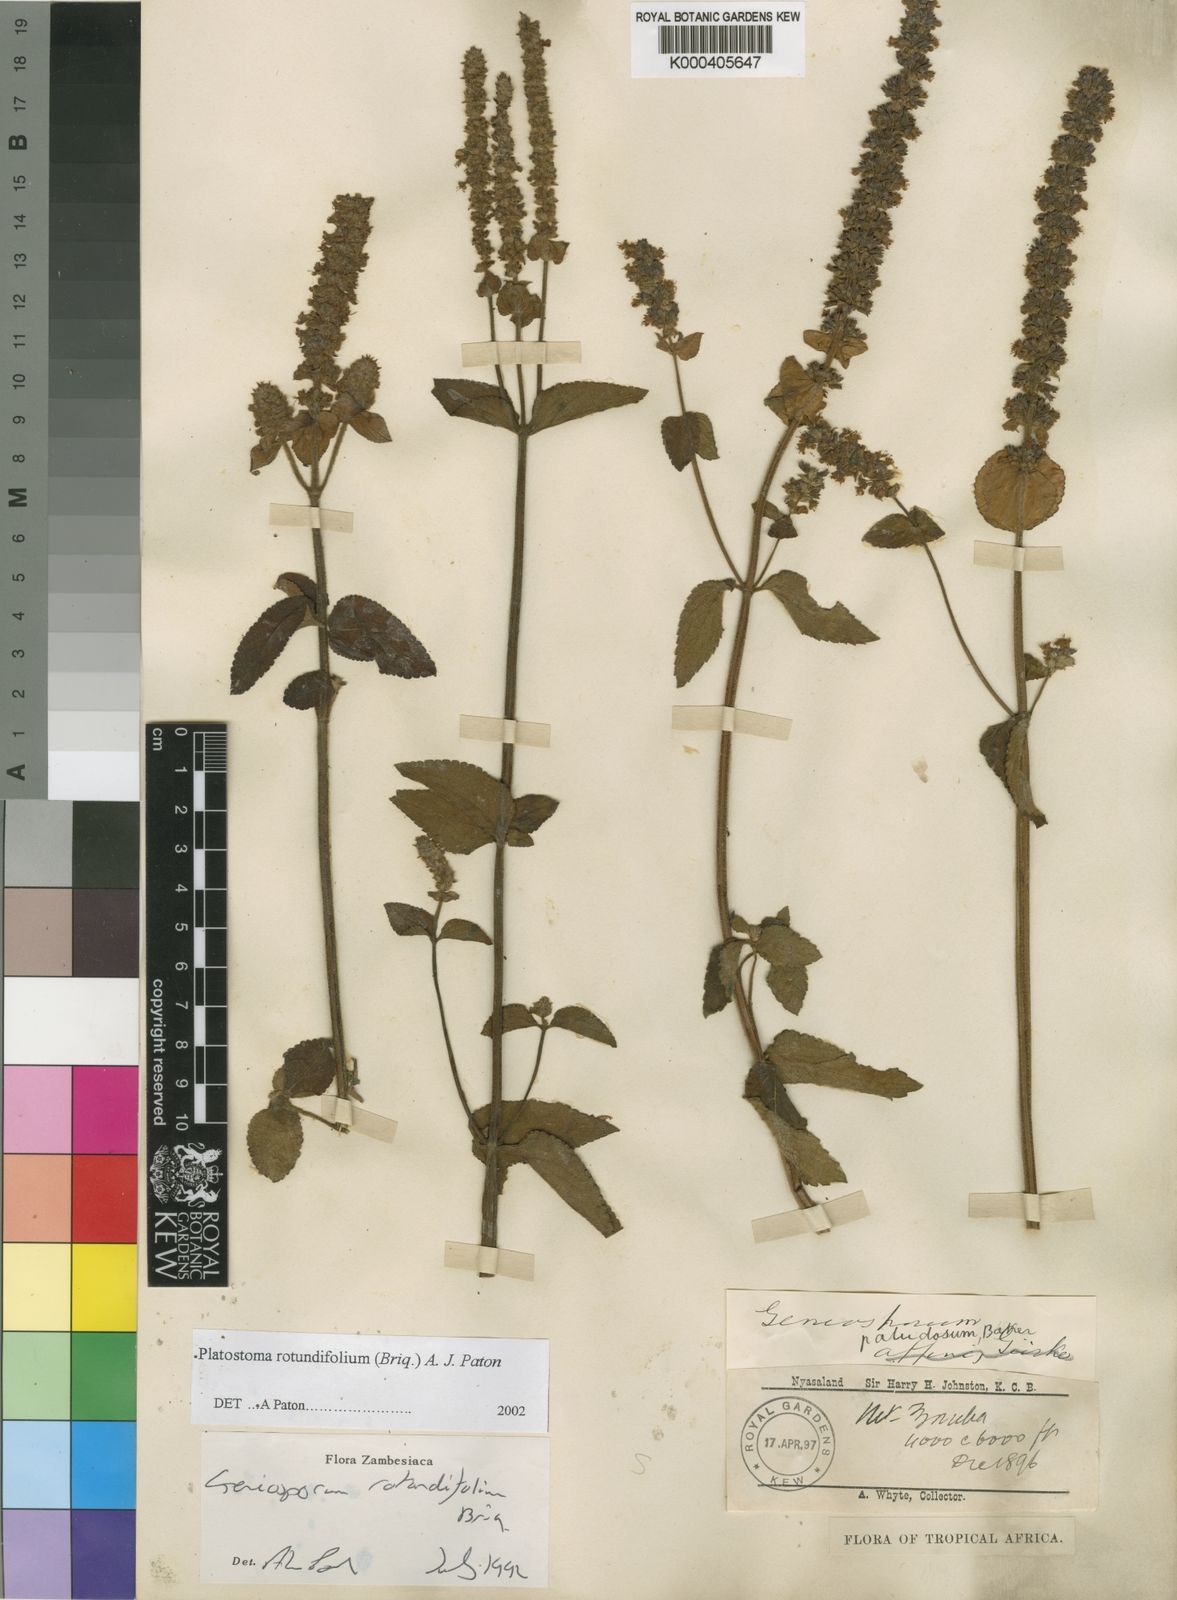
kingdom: Plantae
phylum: Tracheophyta
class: Magnoliopsida
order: Lamiales
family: Lamiaceae
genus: Platostoma
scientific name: Platostoma rotundifolium
